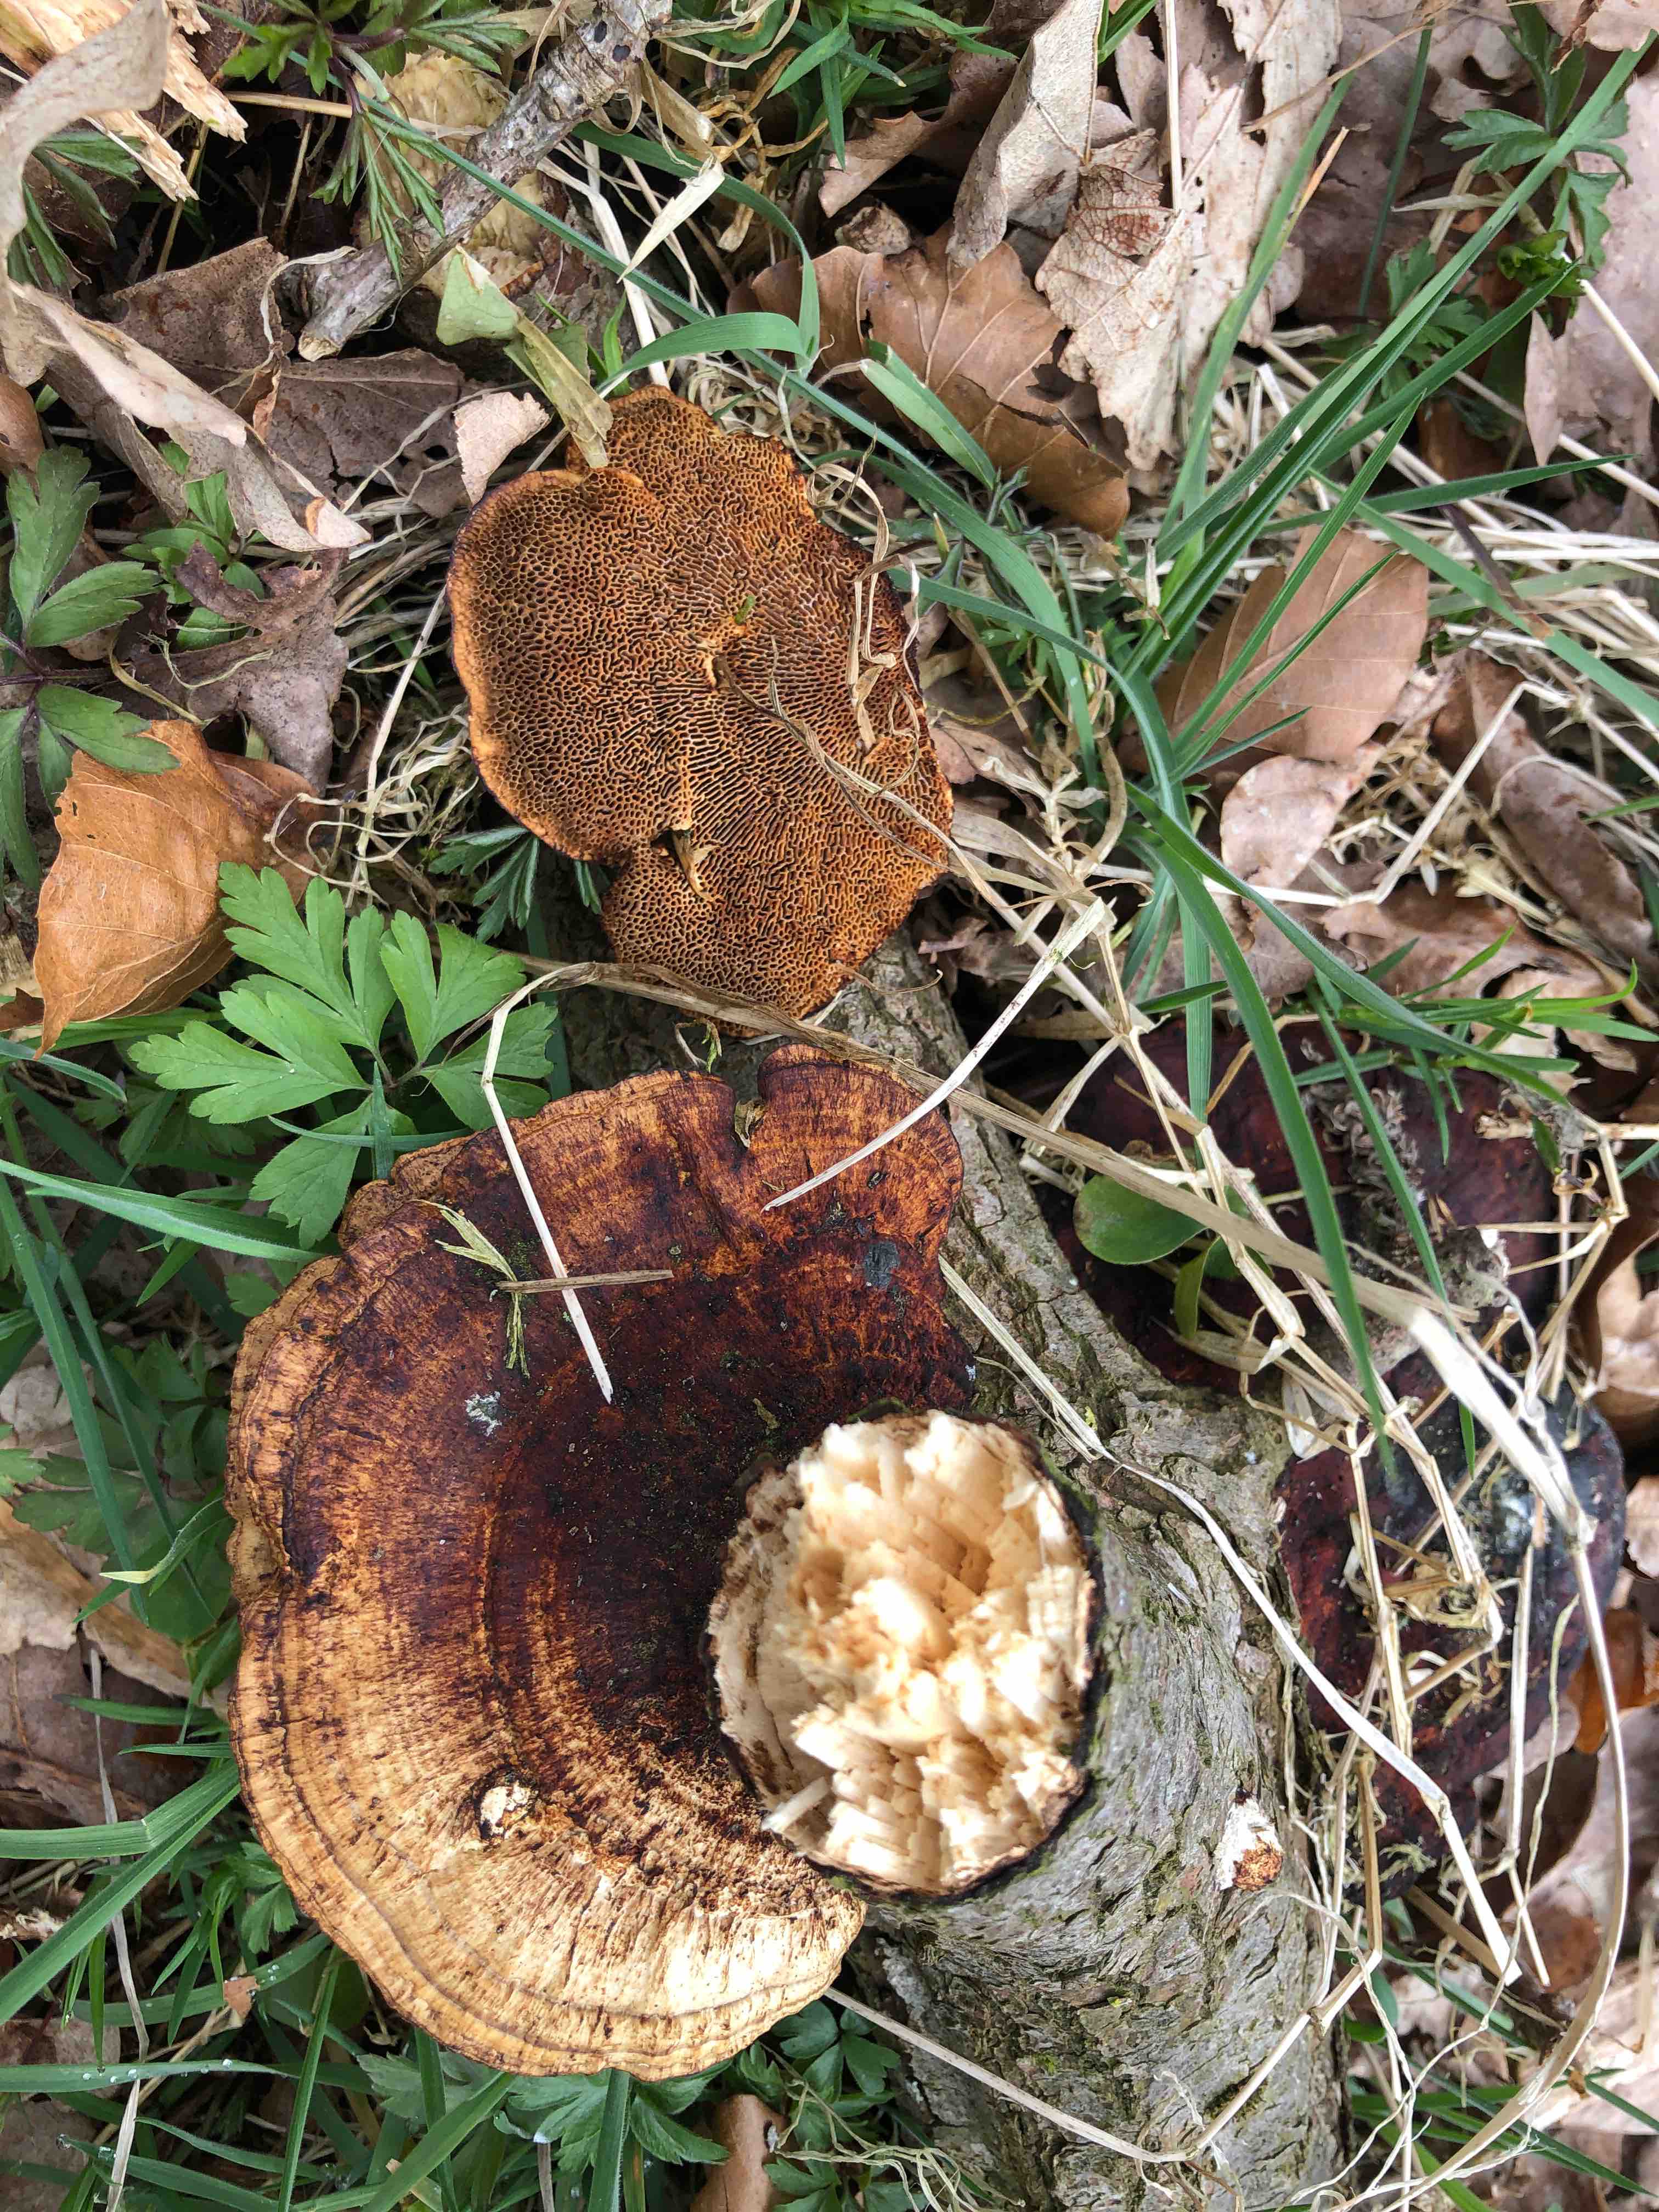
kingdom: Fungi
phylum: Basidiomycota
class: Agaricomycetes
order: Polyporales
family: Polyporaceae
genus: Daedaleopsis
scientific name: Daedaleopsis confragosa
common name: rødmende læderporesvamp
